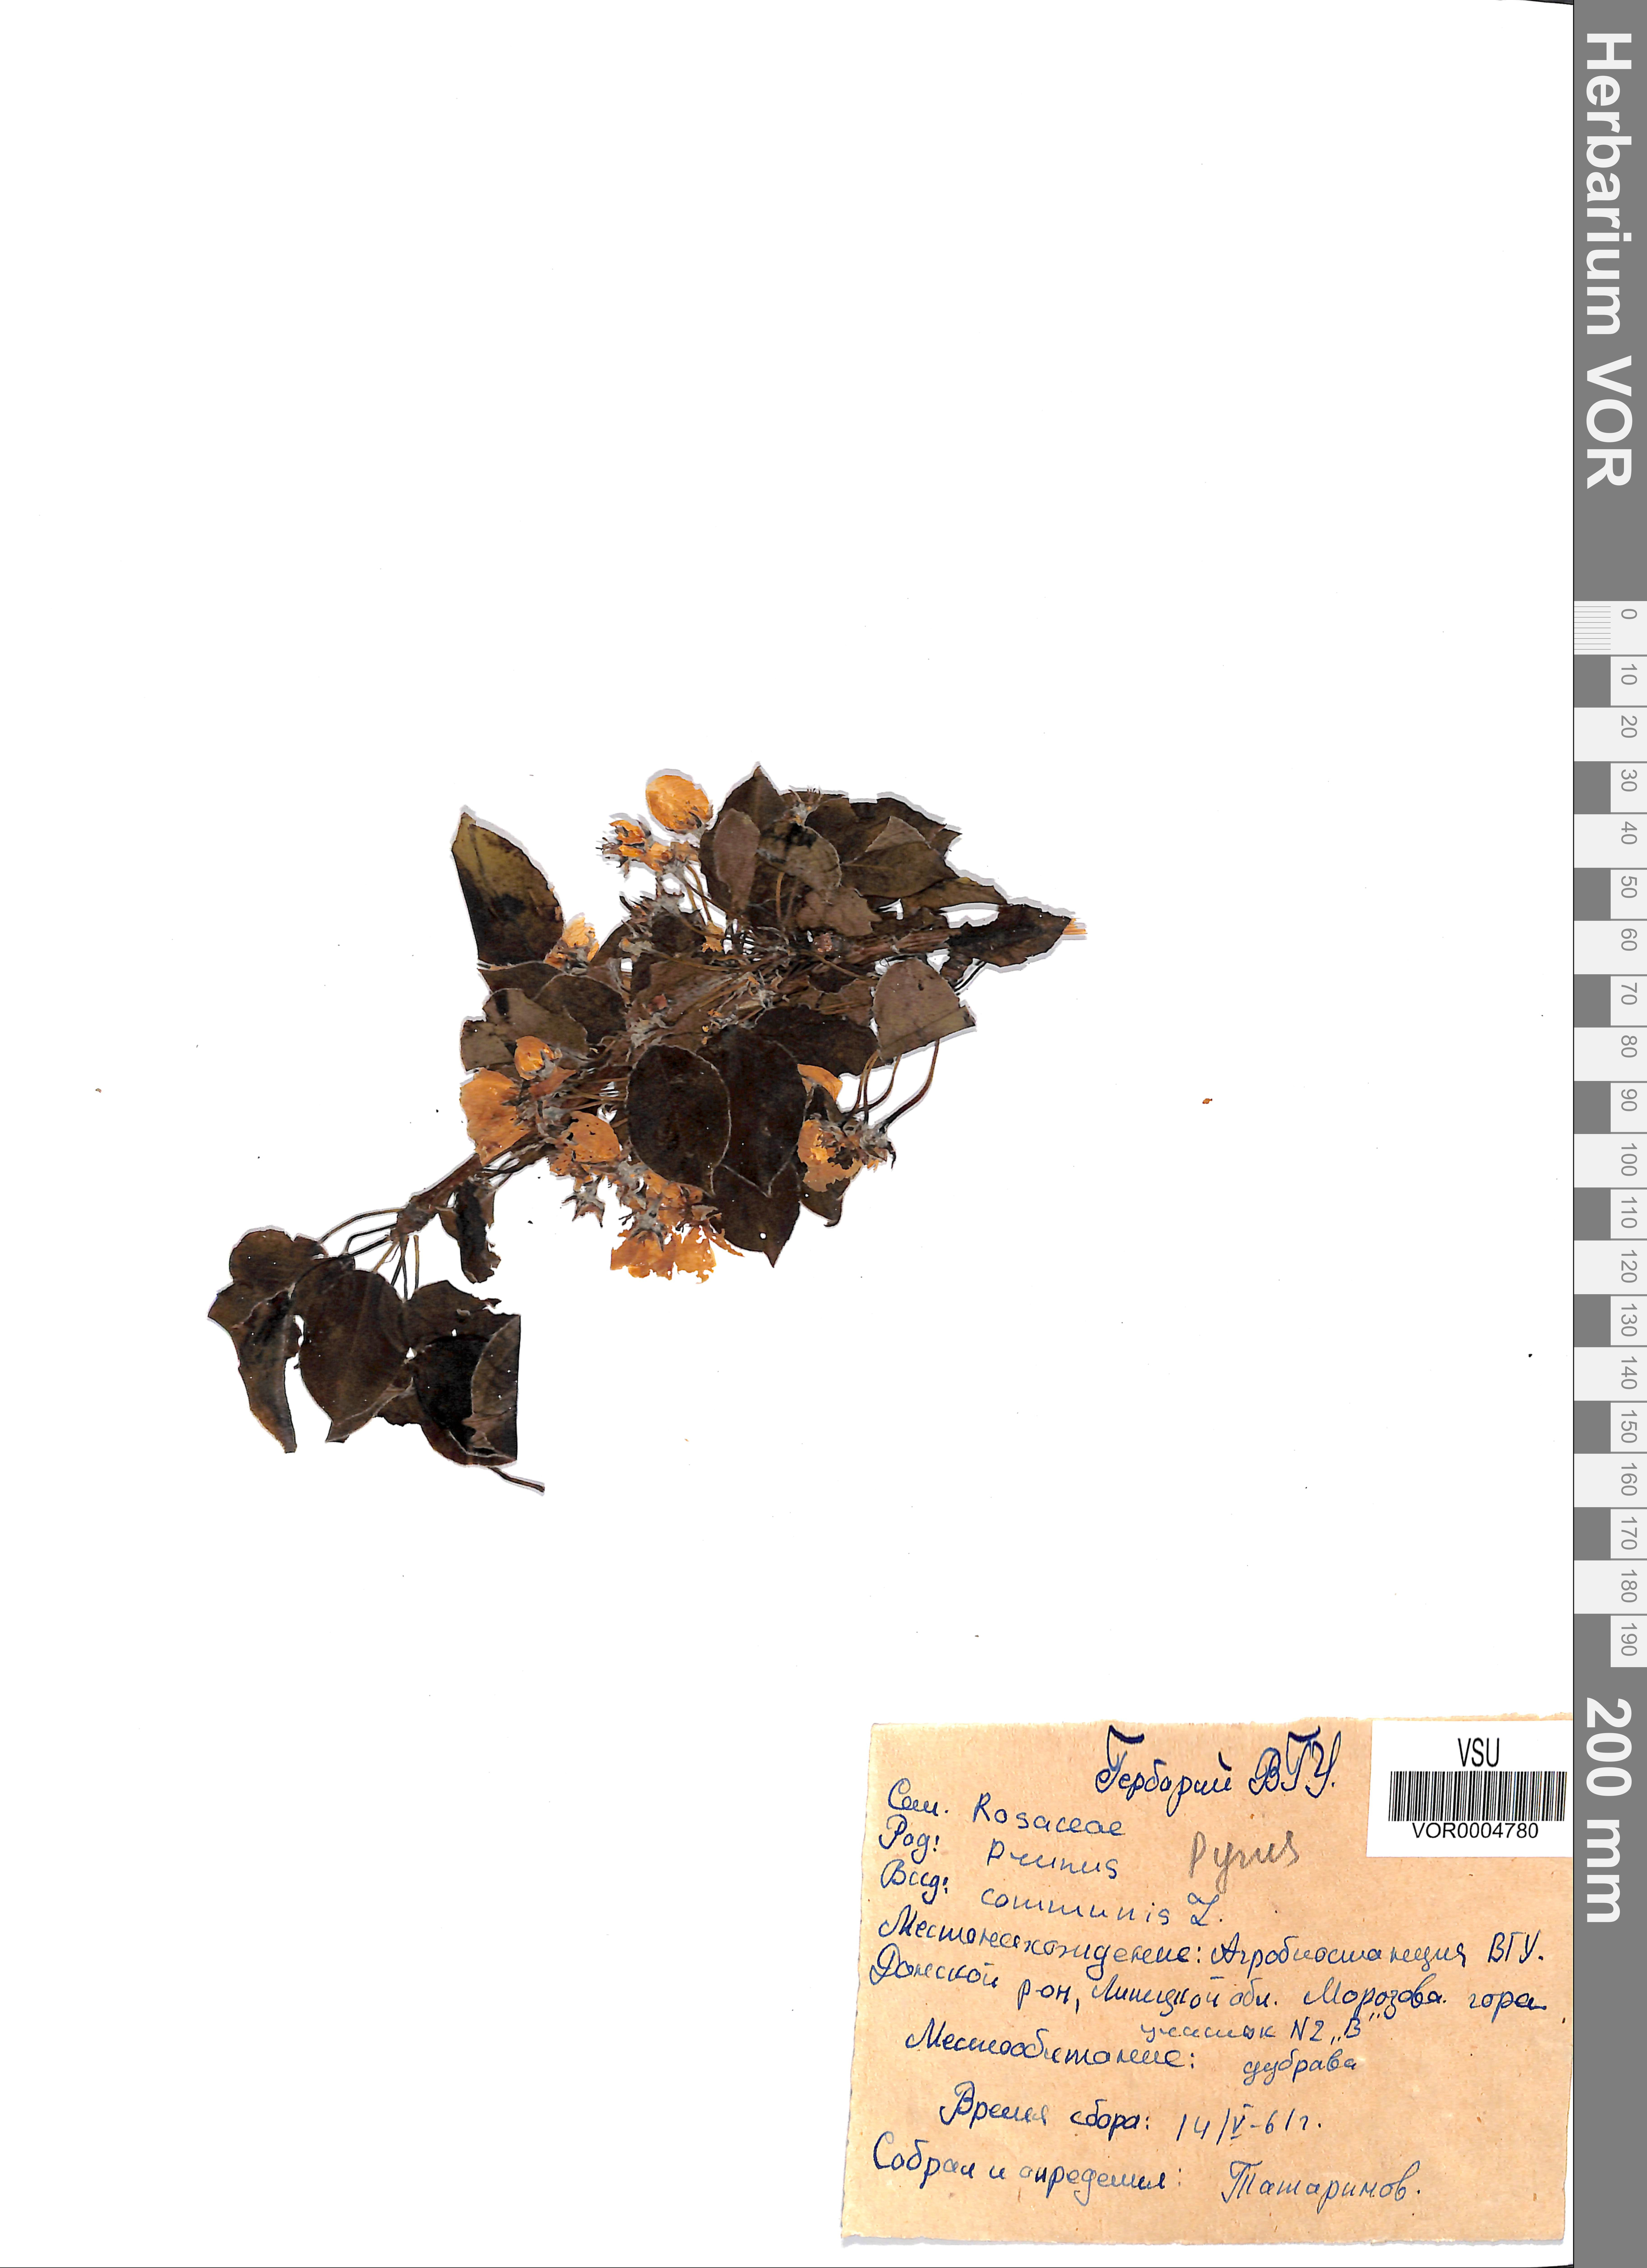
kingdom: Plantae
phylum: Tracheophyta
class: Magnoliopsida
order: Rosales
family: Rosaceae
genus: Pyrus
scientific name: Pyrus communis
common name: Pear
